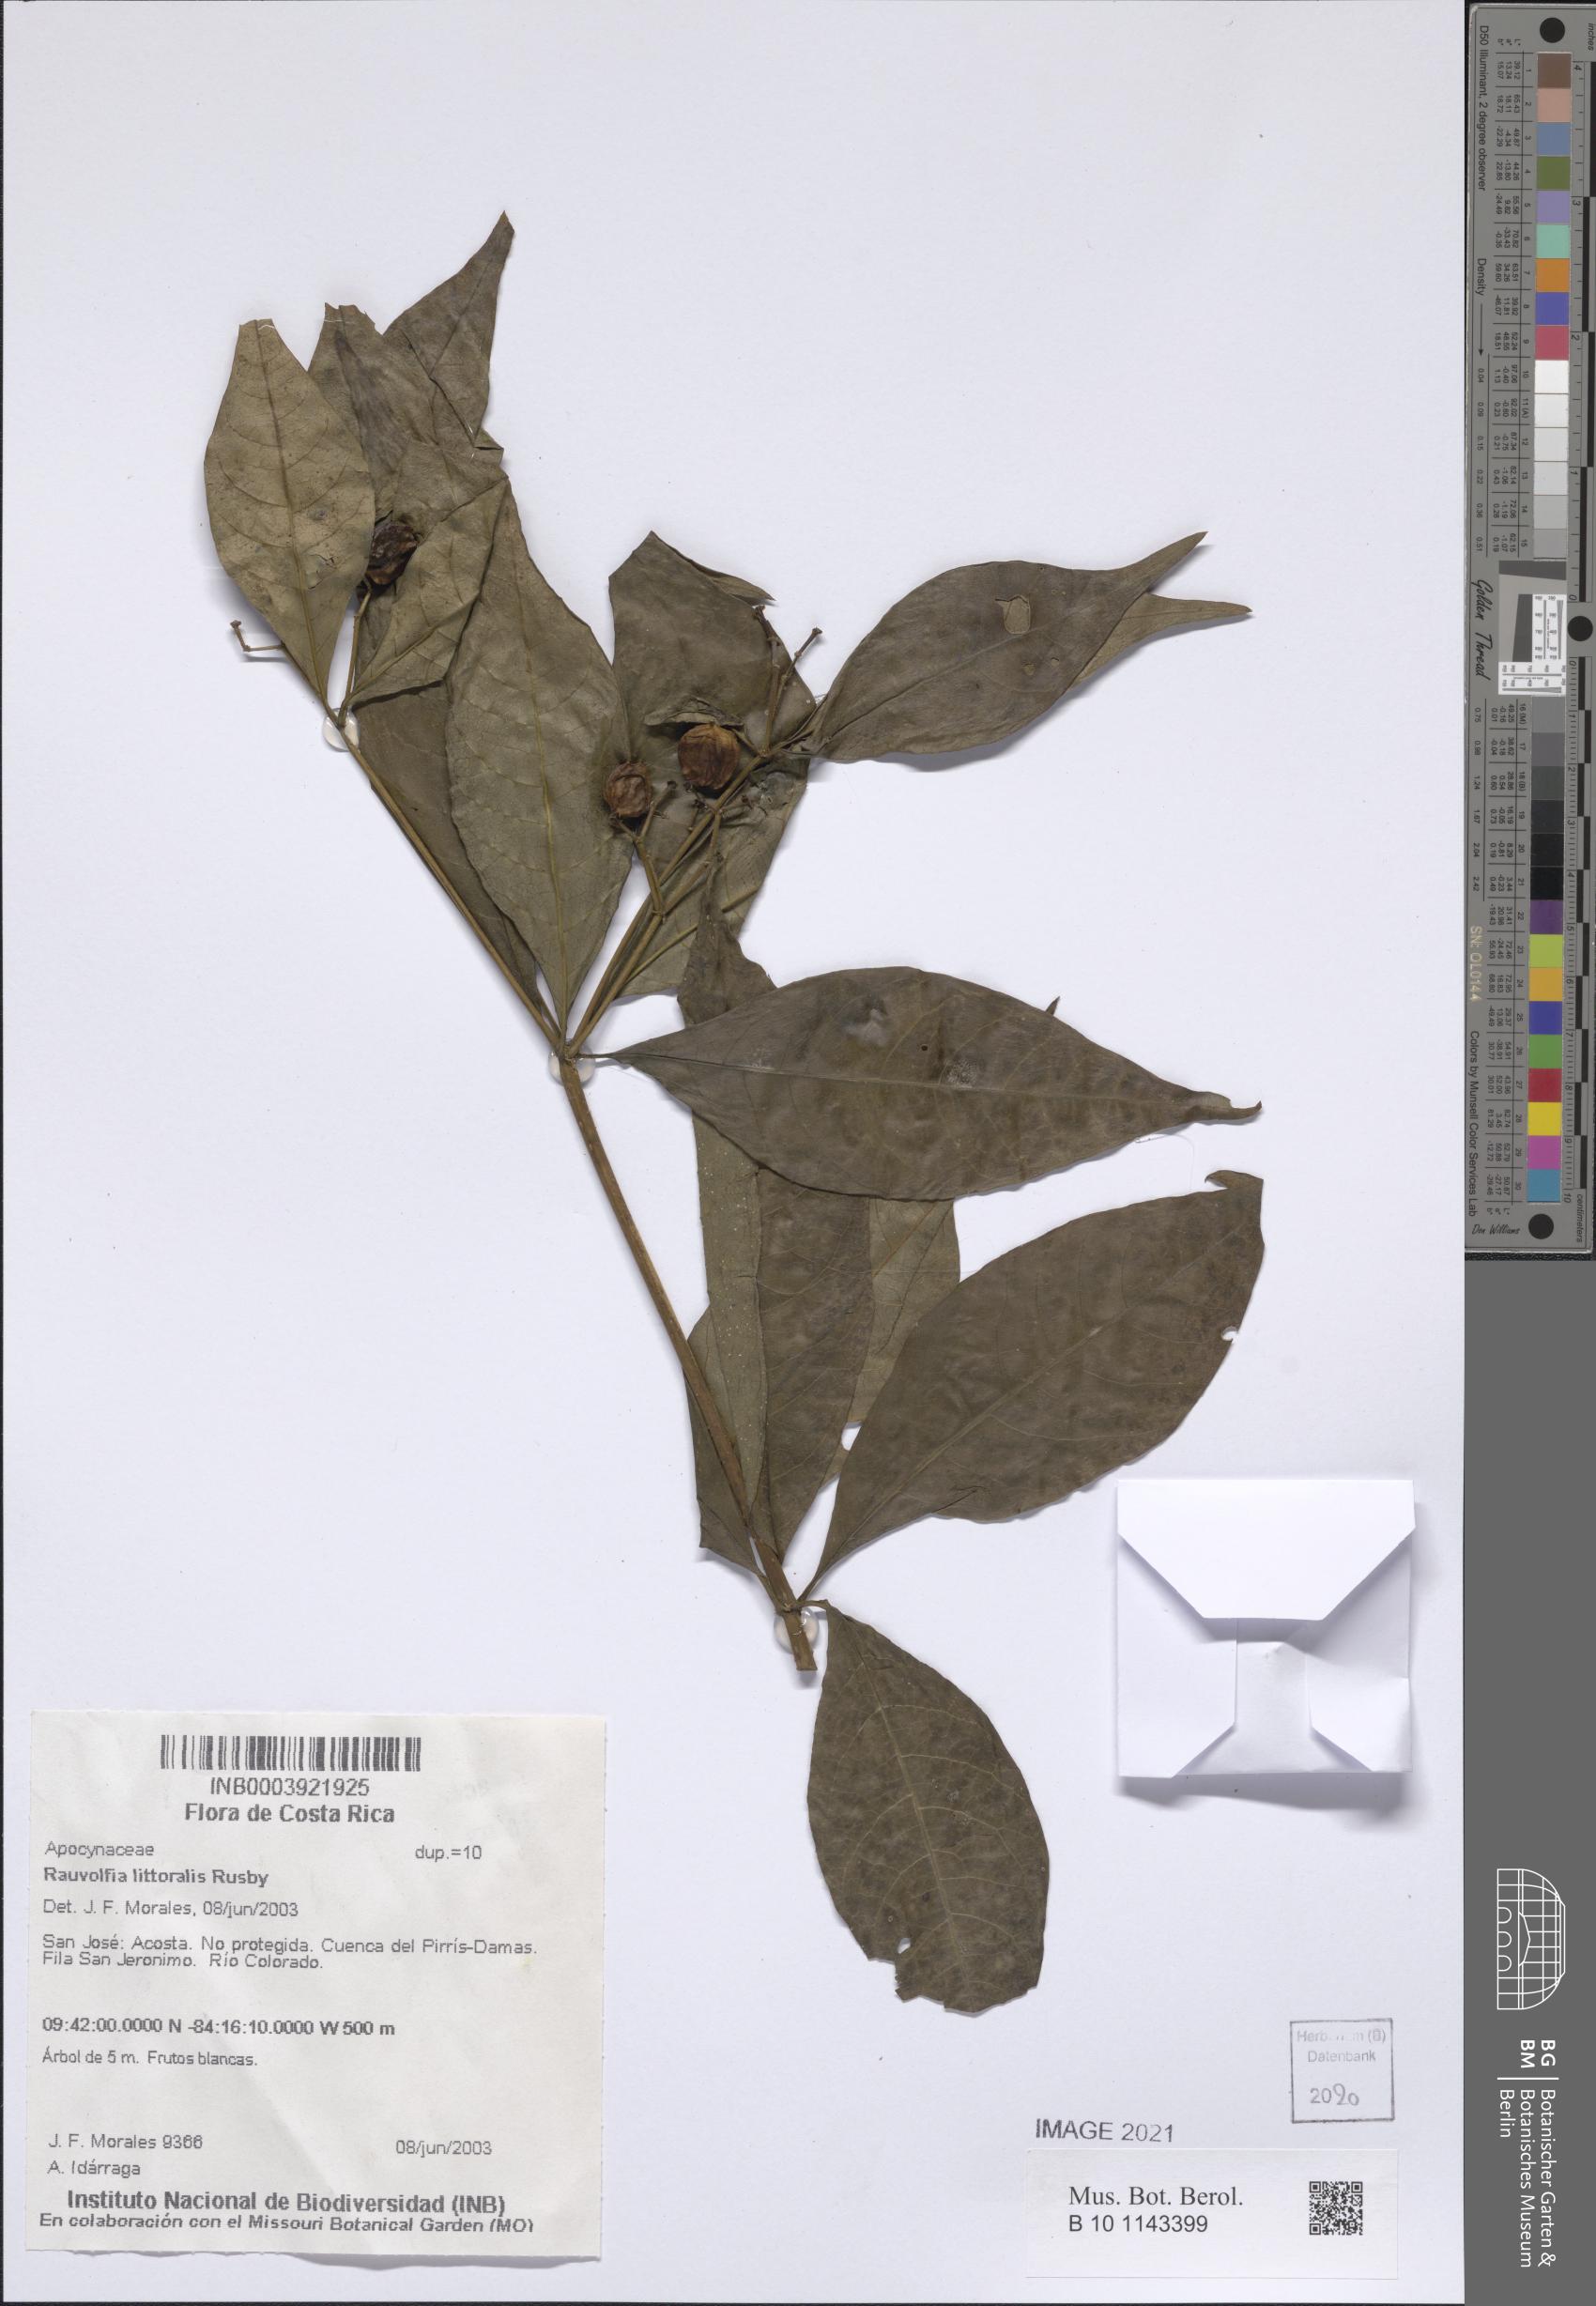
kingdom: Plantae
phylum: Tracheophyta
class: Magnoliopsida
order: Gentianales
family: Apocynaceae
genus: Rauvolfia
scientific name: Rauvolfia indosinensis
